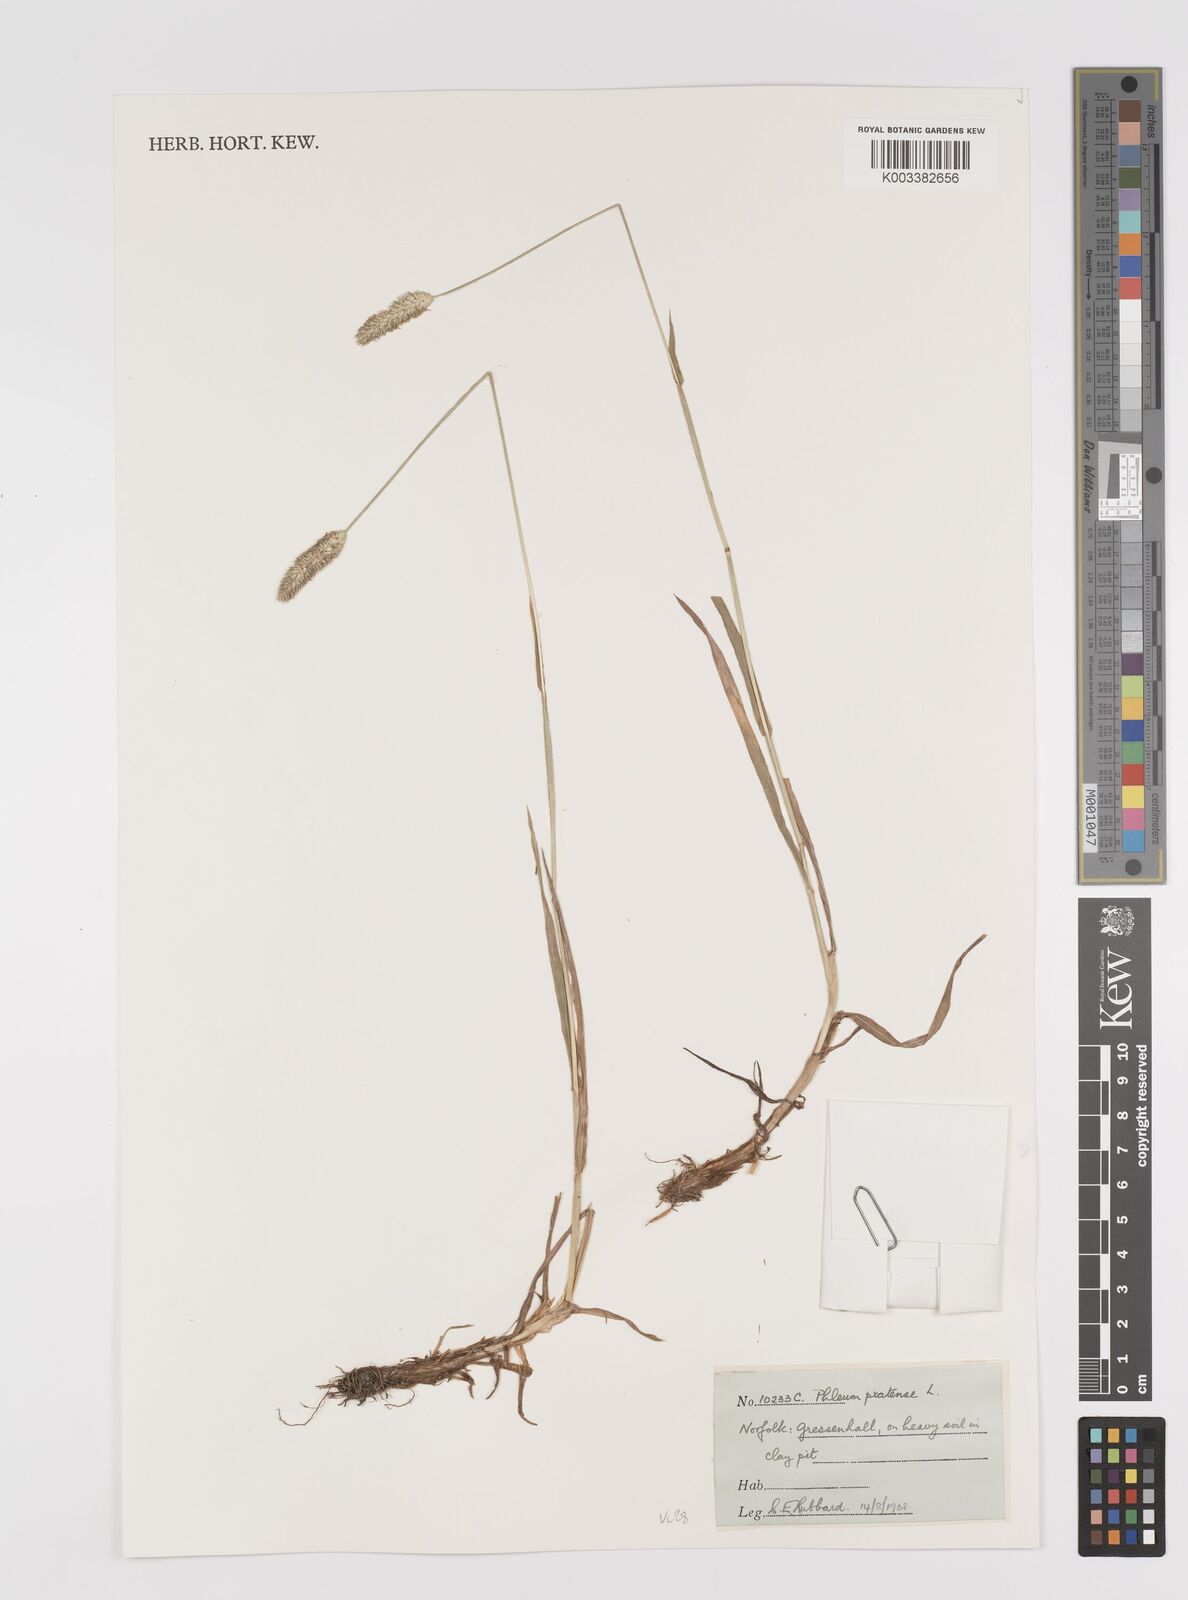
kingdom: Plantae
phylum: Tracheophyta
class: Liliopsida
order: Poales
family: Poaceae
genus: Phleum
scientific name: Phleum pratense
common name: Timothy grass
